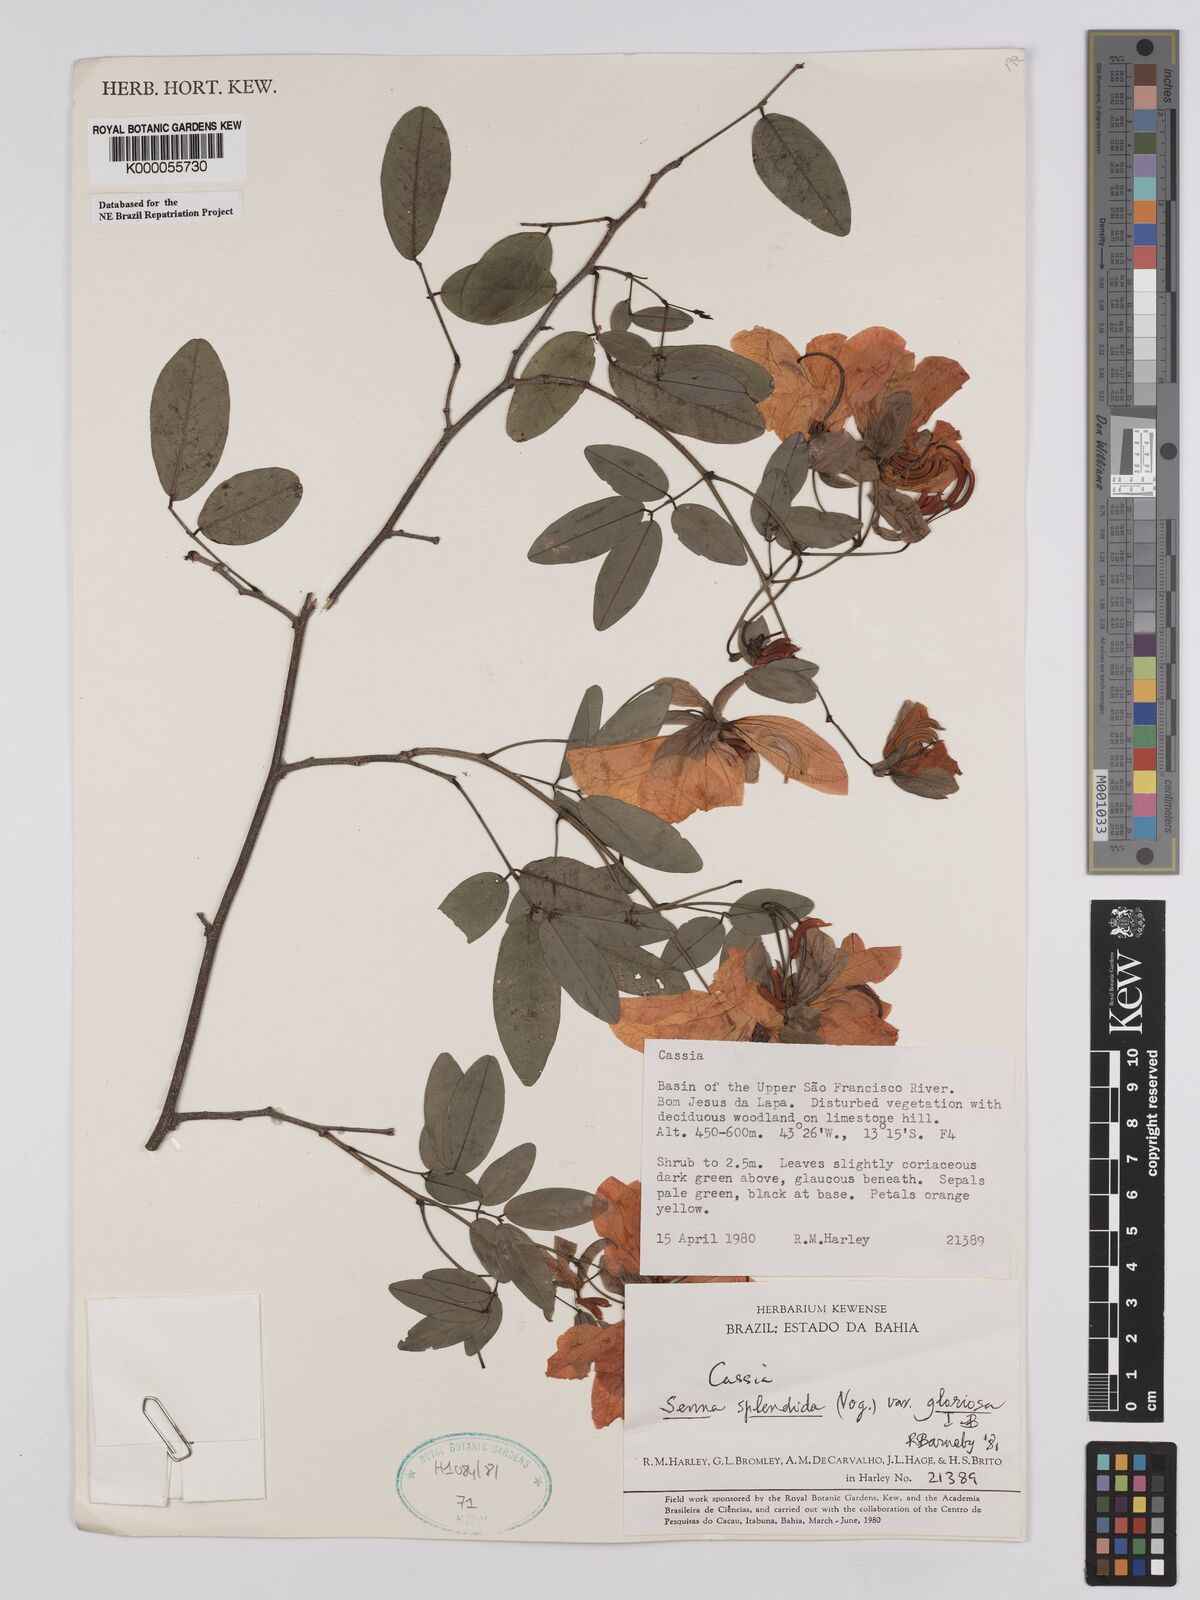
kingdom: Plantae
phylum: Tracheophyta
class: Magnoliopsida
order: Fabales
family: Fabaceae
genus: Senna
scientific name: Senna splendida
